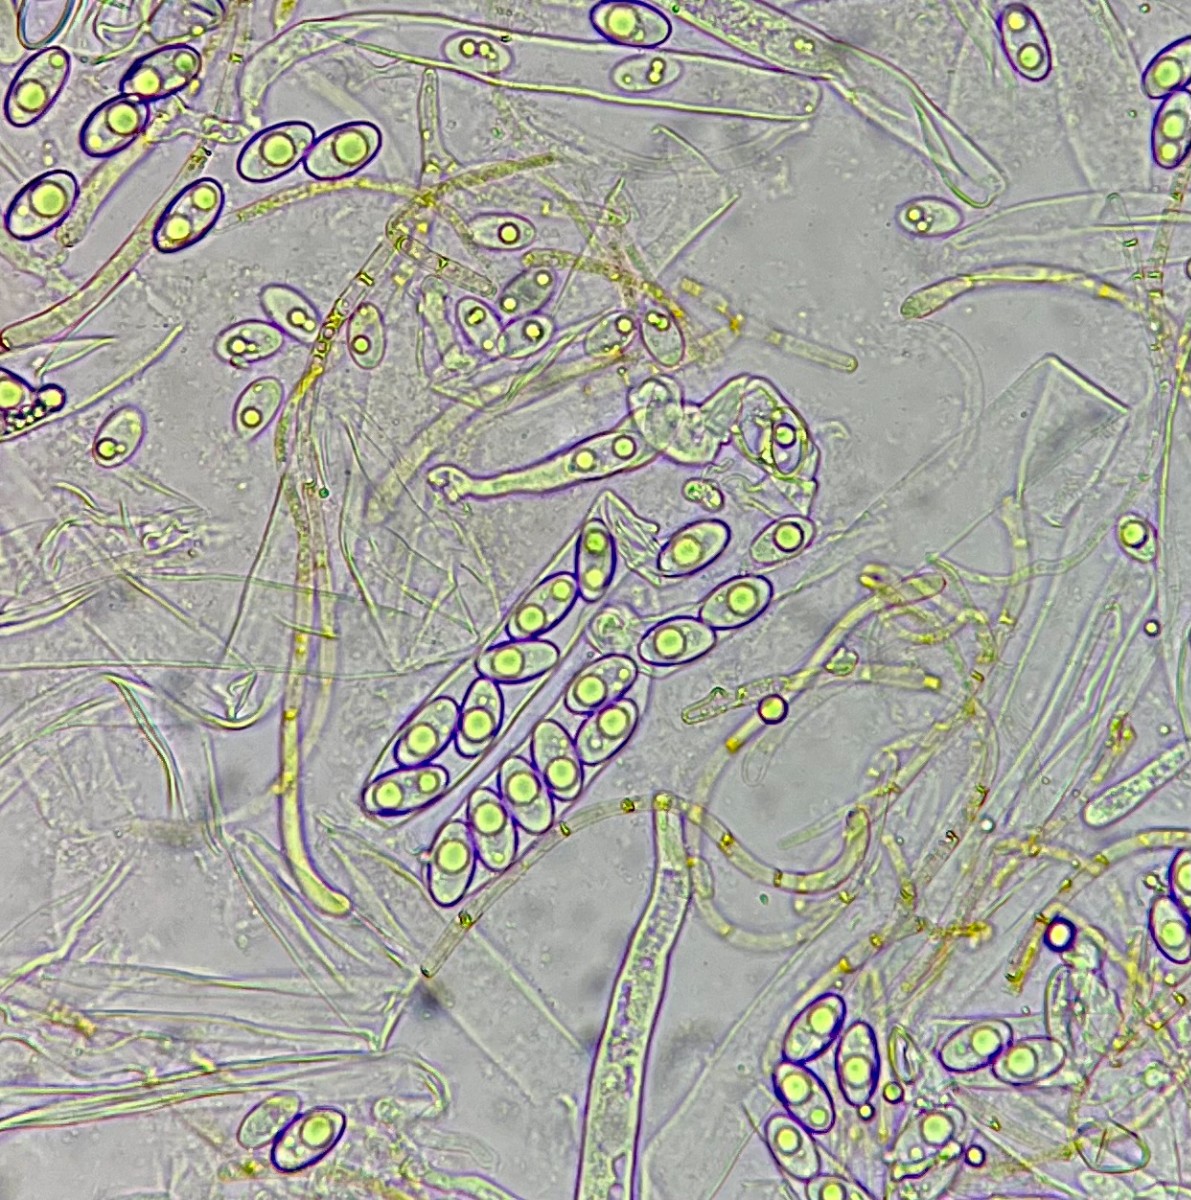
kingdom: Fungi
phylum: Ascomycota
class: Pezizomycetes
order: Pezizales
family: Pyronemataceae
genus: Inermisia
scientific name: Inermisia gyalectoides
